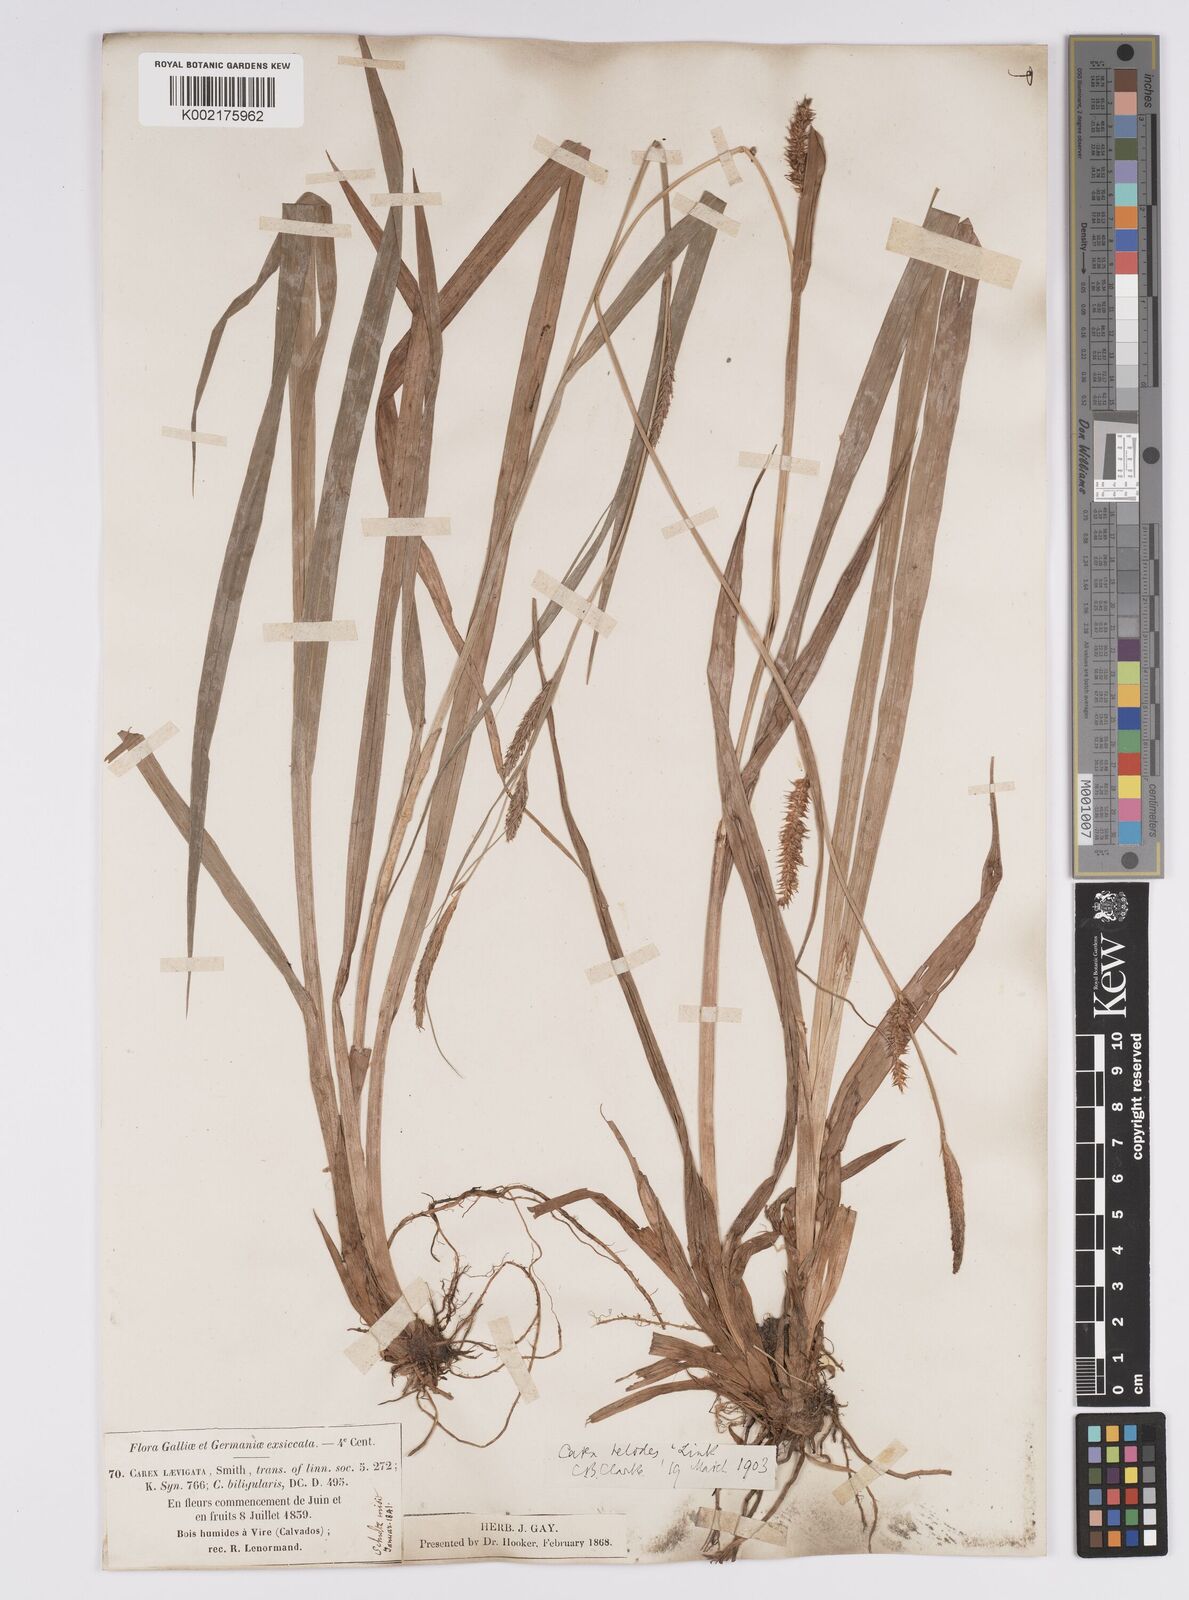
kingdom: Plantae
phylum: Tracheophyta
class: Liliopsida
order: Poales
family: Cyperaceae
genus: Carex
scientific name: Carex laevigata
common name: Smooth-stalked sedge
